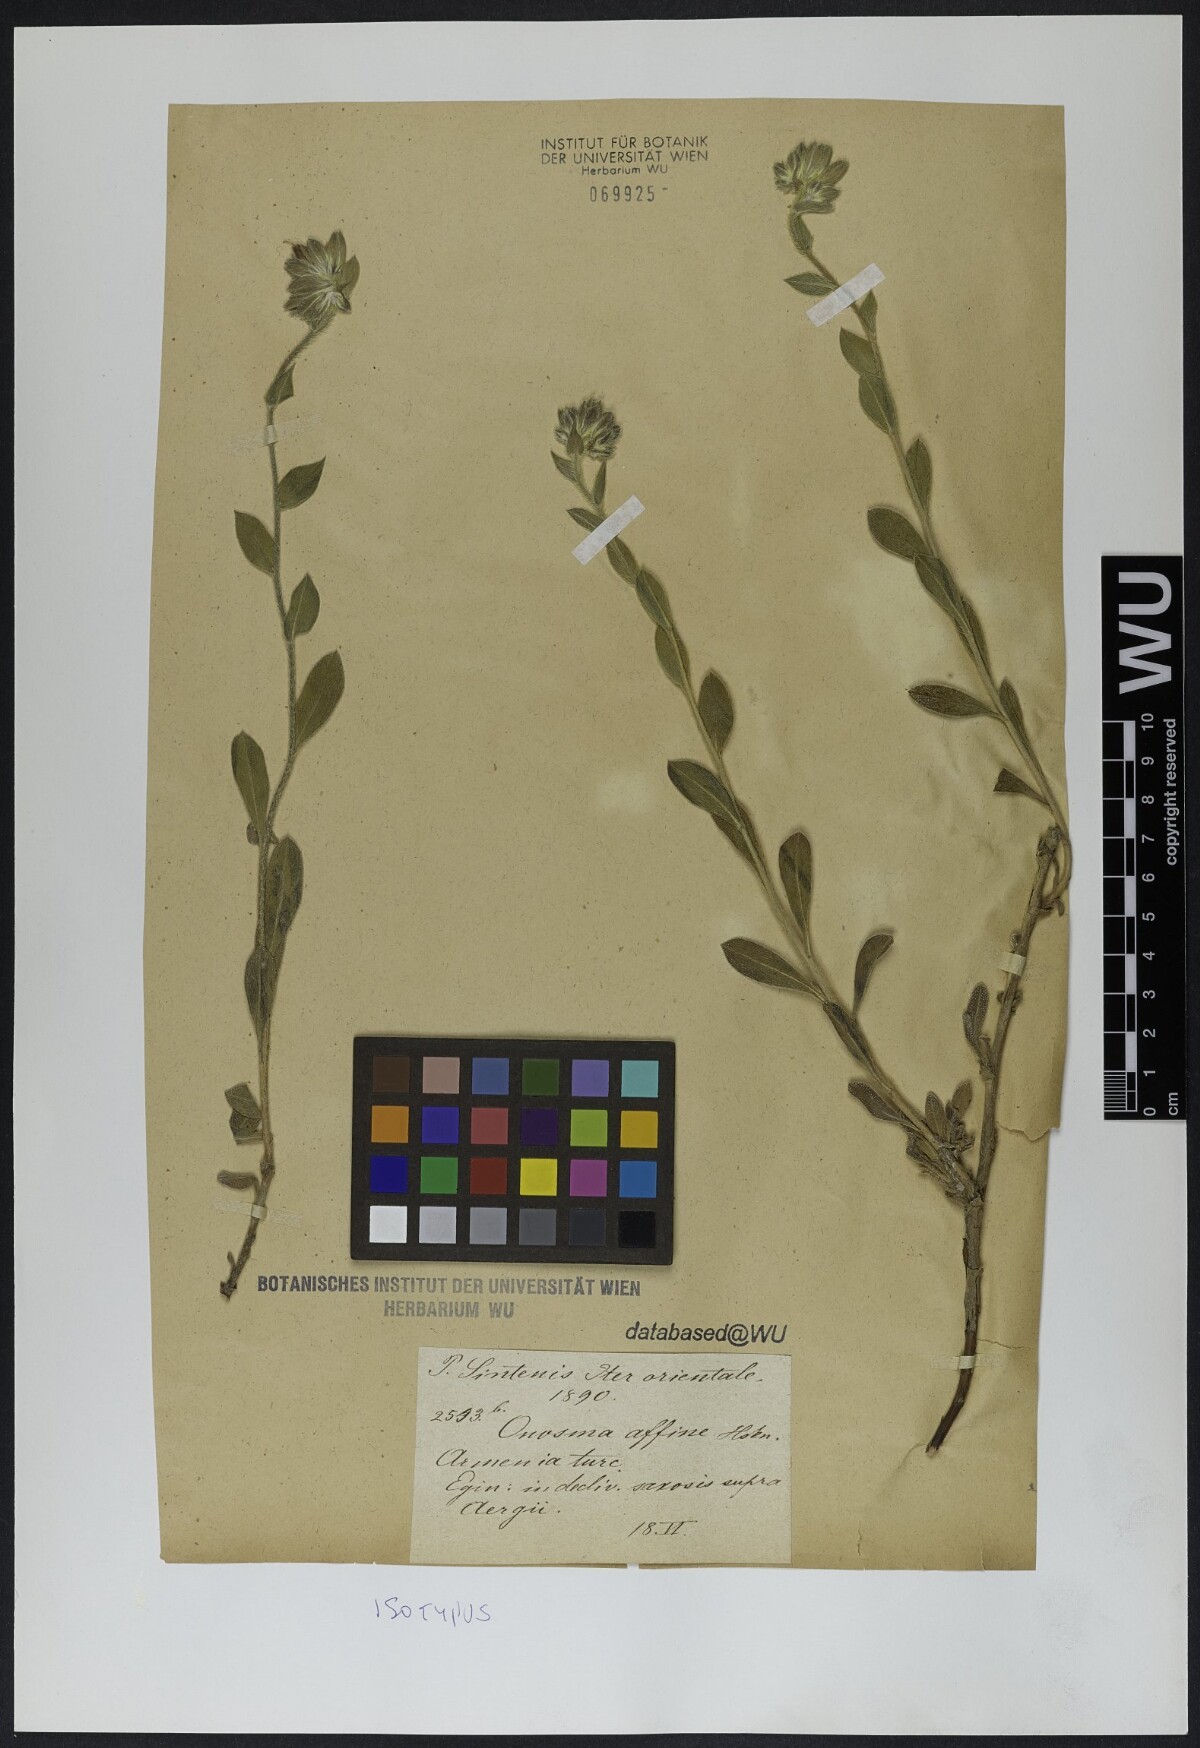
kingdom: Plantae
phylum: Tracheophyta
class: Magnoliopsida
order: Boraginales
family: Boraginaceae
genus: Onosma
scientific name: Onosma affinis
